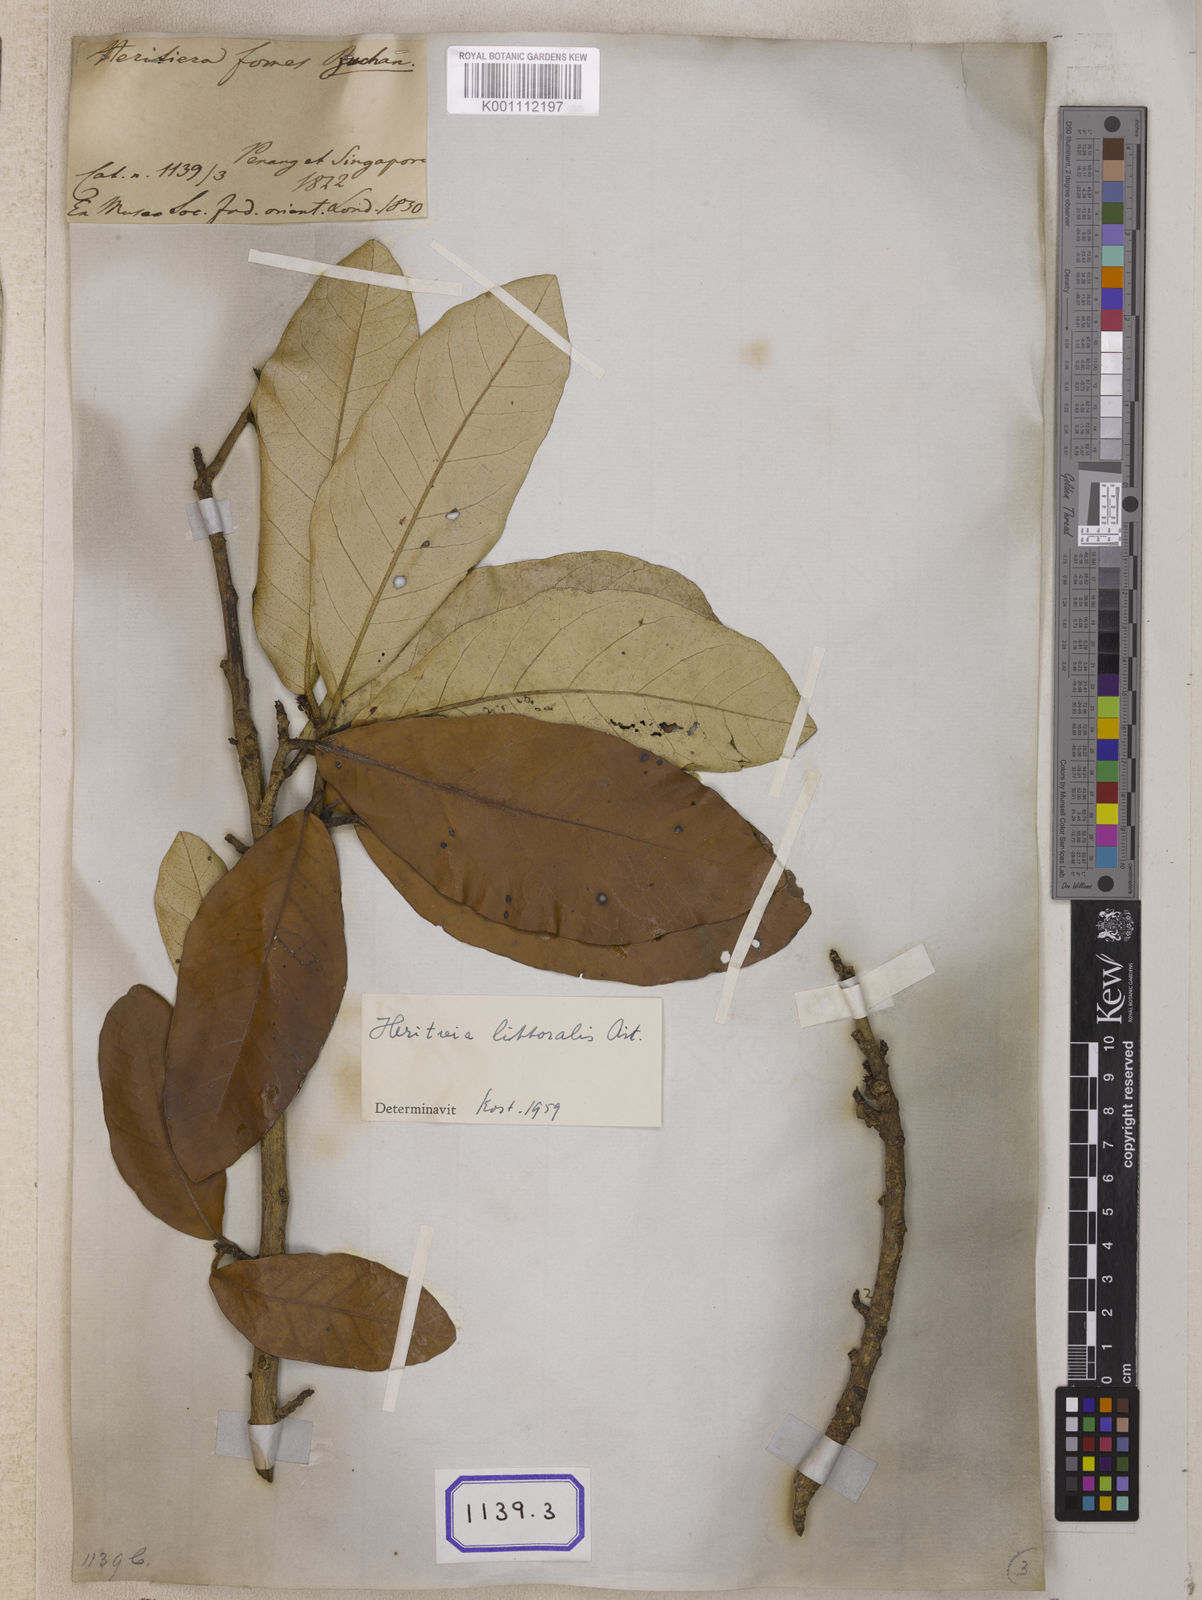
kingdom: Plantae
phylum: Tracheophyta
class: Magnoliopsida
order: Malvales
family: Malvaceae
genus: Heritiera
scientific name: Heritiera
